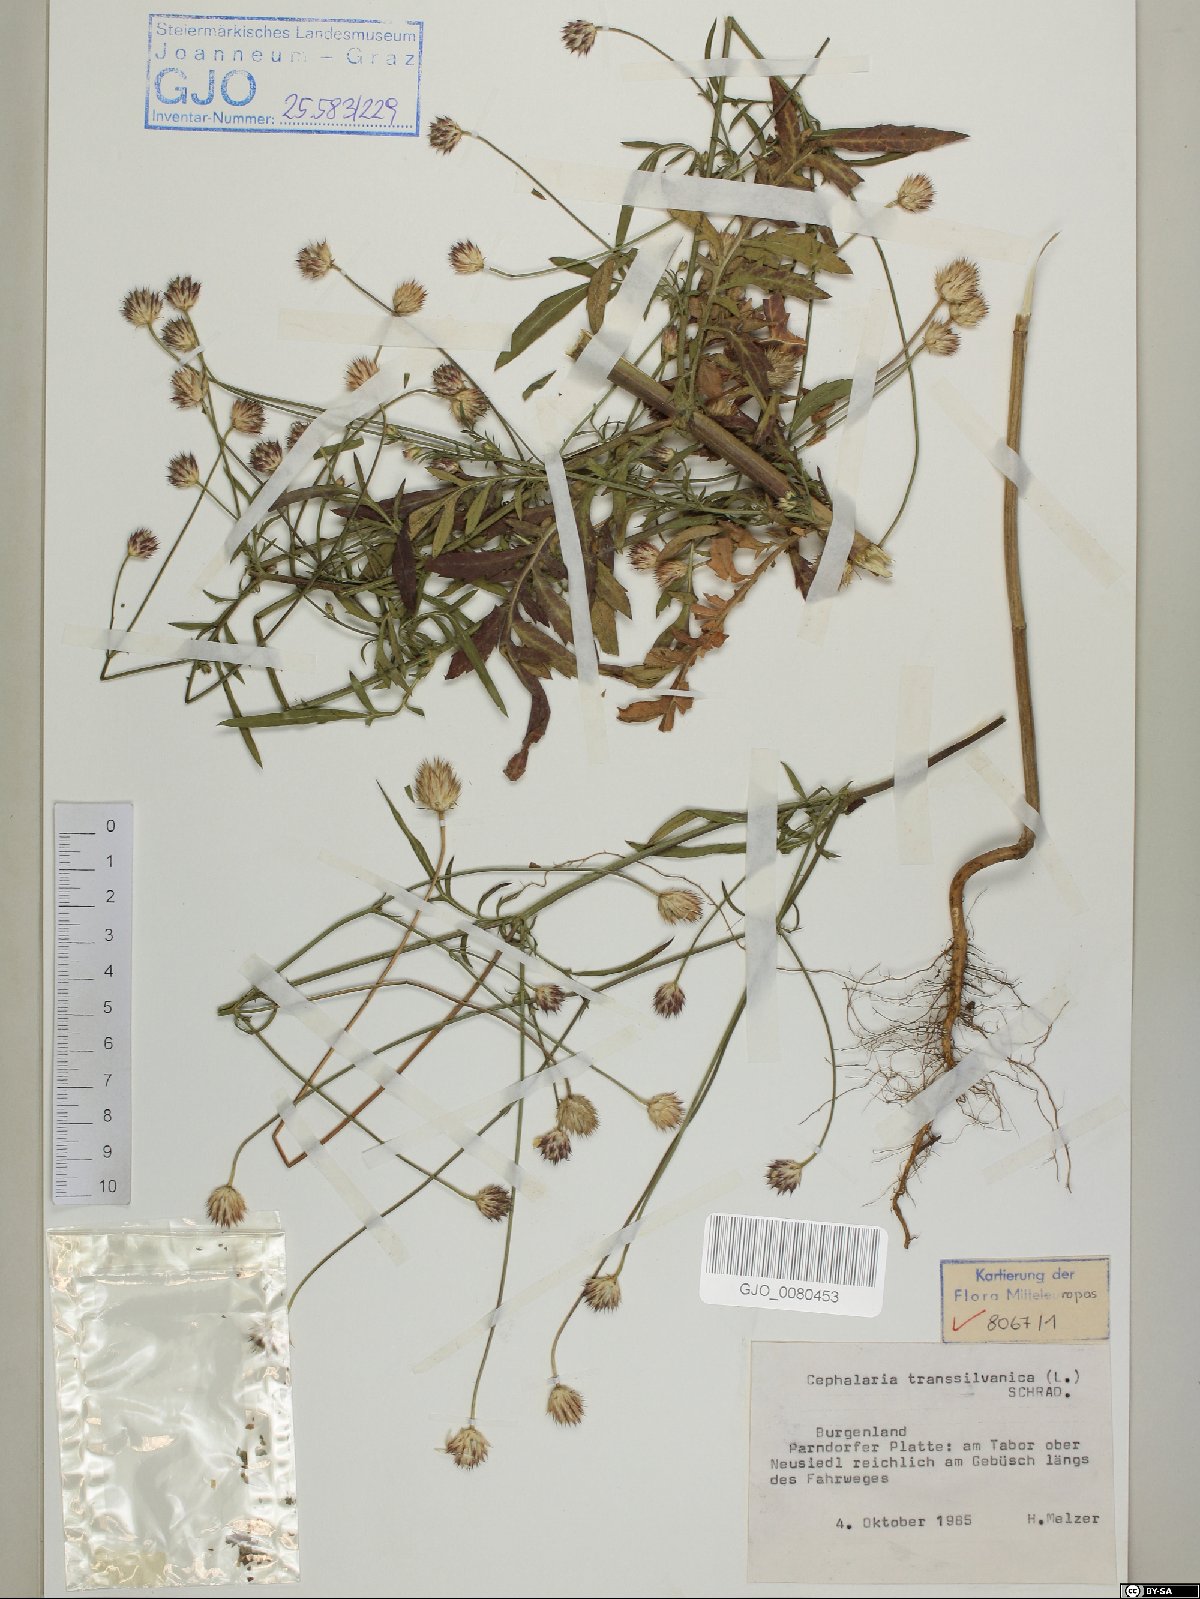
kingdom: Plantae
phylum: Tracheophyta
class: Magnoliopsida
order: Dipsacales
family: Caprifoliaceae
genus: Cephalaria
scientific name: Cephalaria transsylvanica
